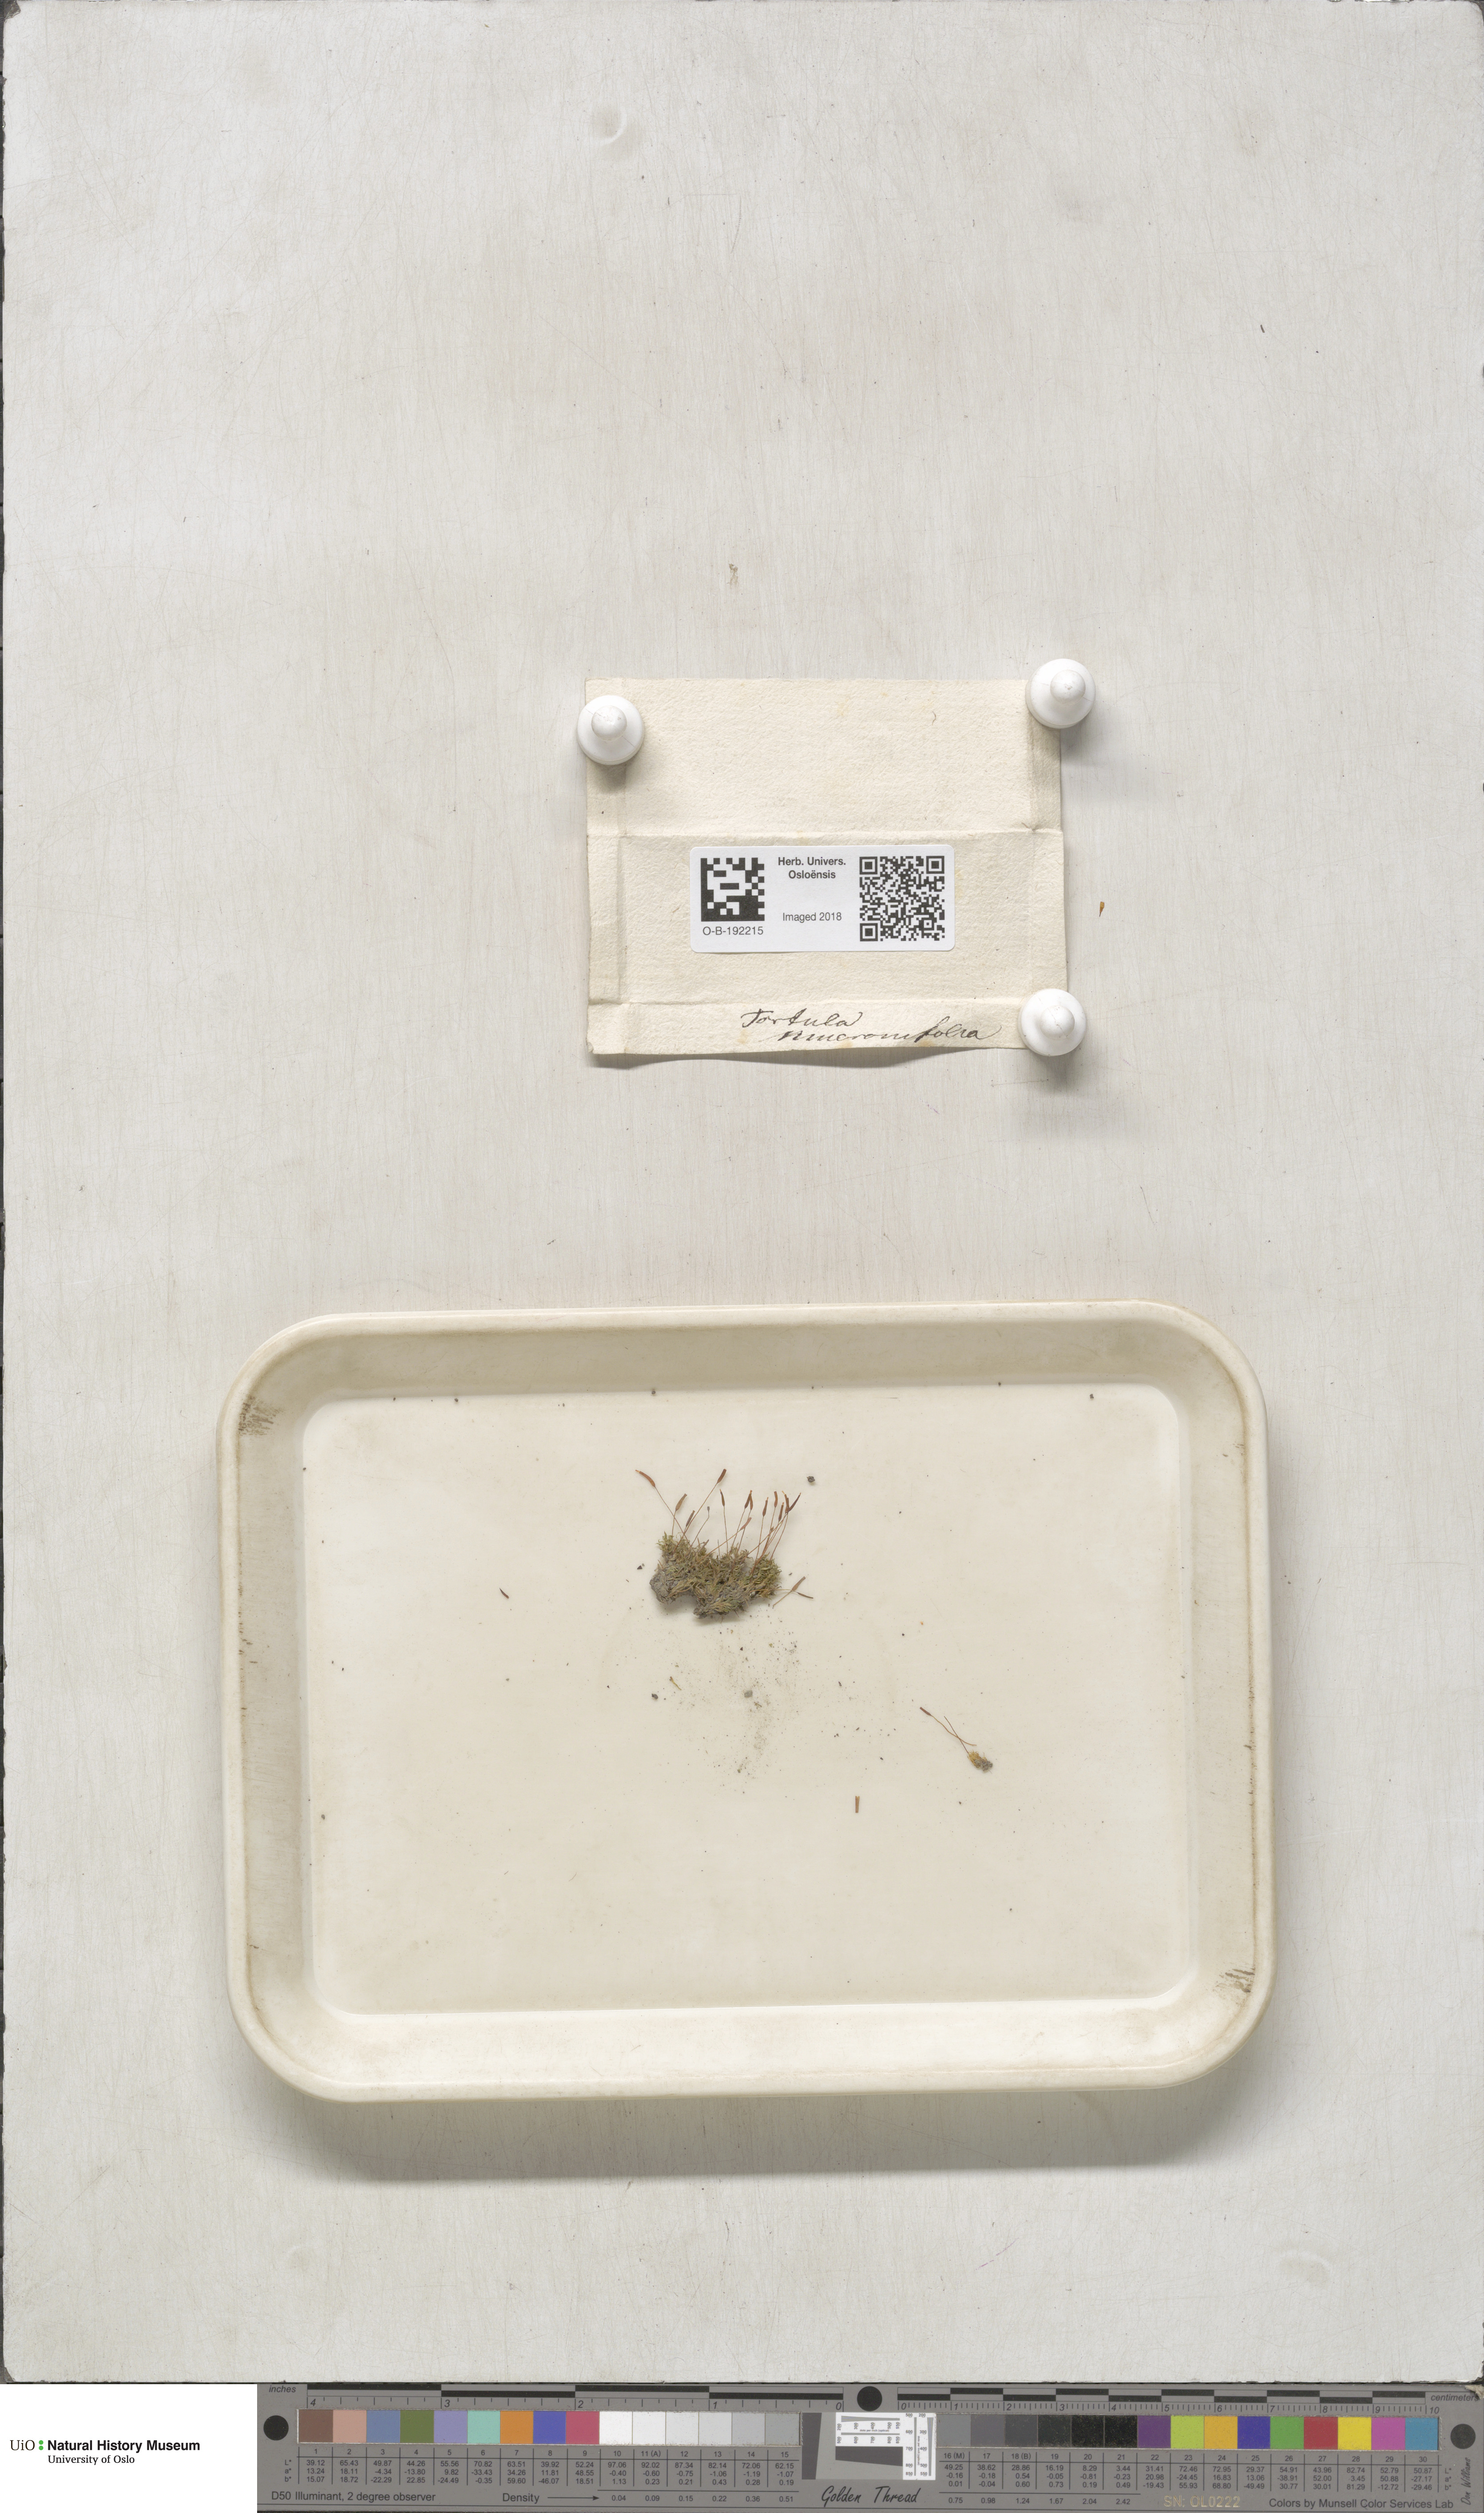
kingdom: Plantae
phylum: Bryophyta
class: Bryopsida
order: Pottiales
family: Pottiaceae
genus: Tortula
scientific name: Tortula mucronifolia
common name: Mucronate screw moss
